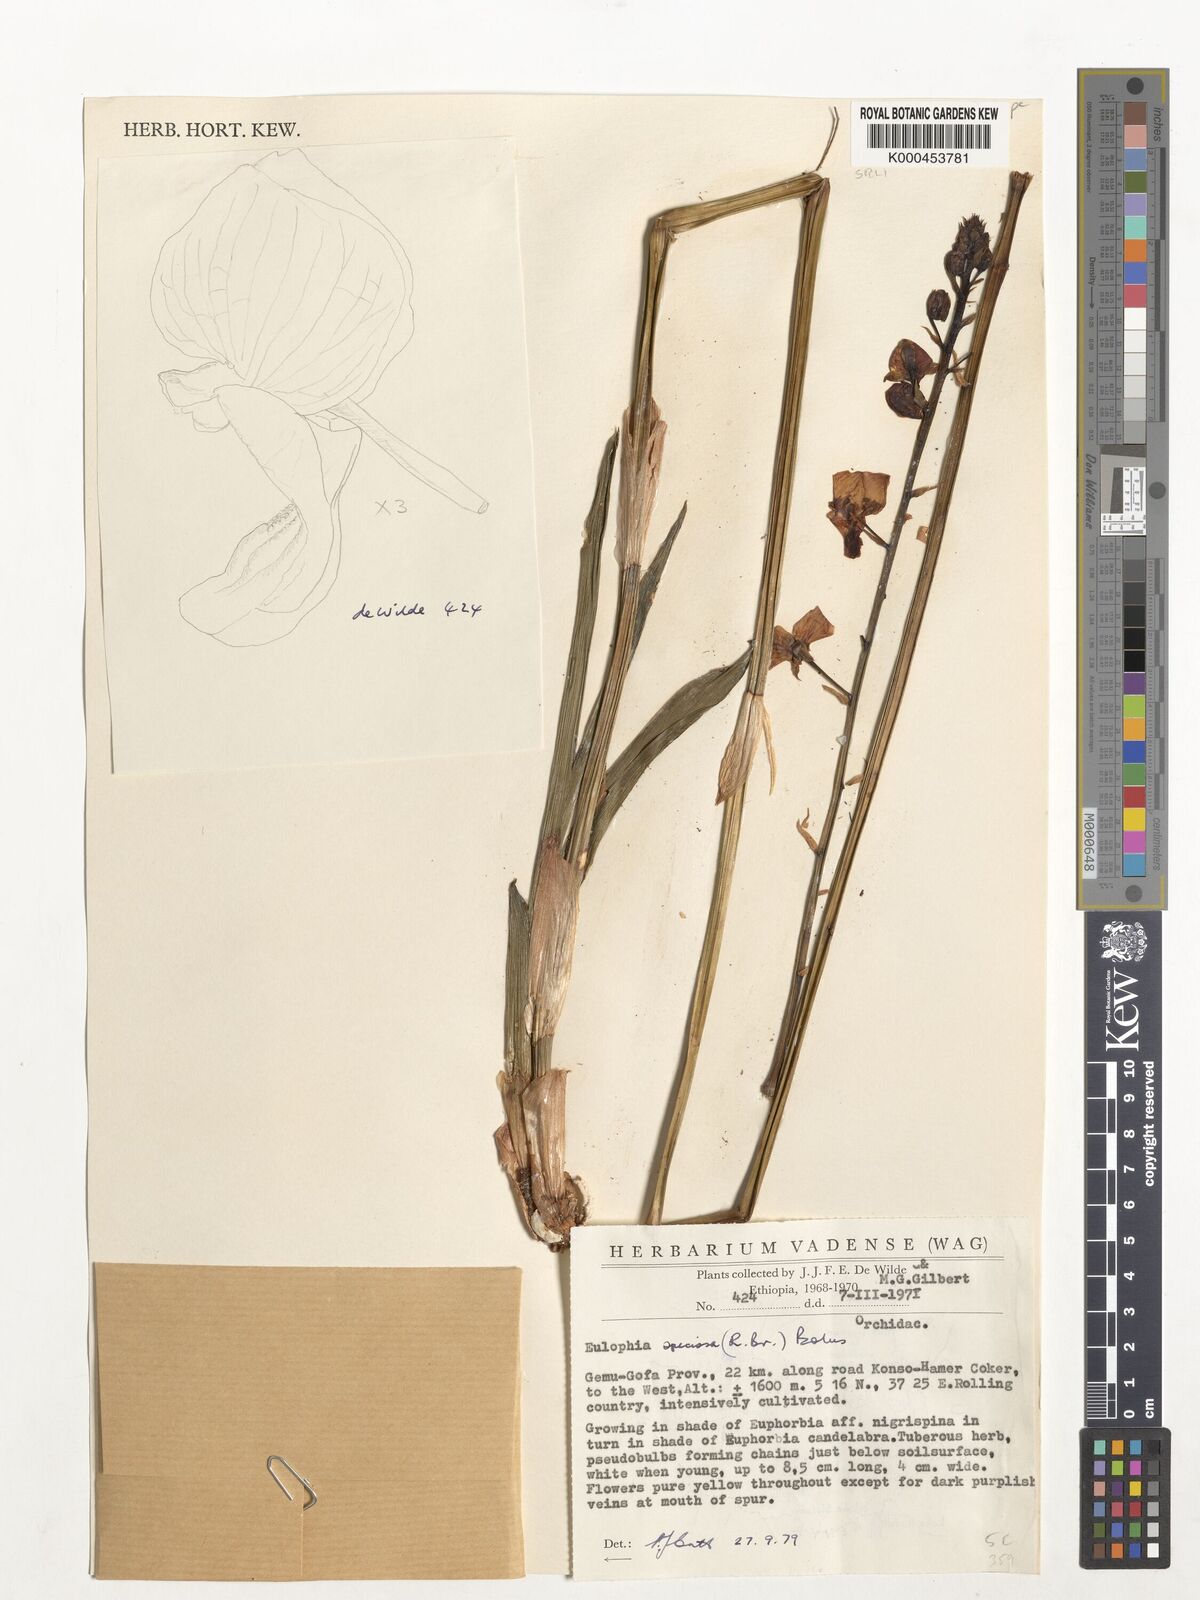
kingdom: Plantae
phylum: Tracheophyta
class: Liliopsida
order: Asparagales
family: Orchidaceae
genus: Eulophia
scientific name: Eulophia speciosa
